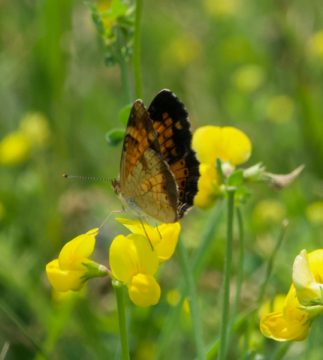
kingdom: Animalia
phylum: Arthropoda
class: Insecta
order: Lepidoptera
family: Nymphalidae
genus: Phyciodes
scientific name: Phyciodes tharos
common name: Northern Crescent
